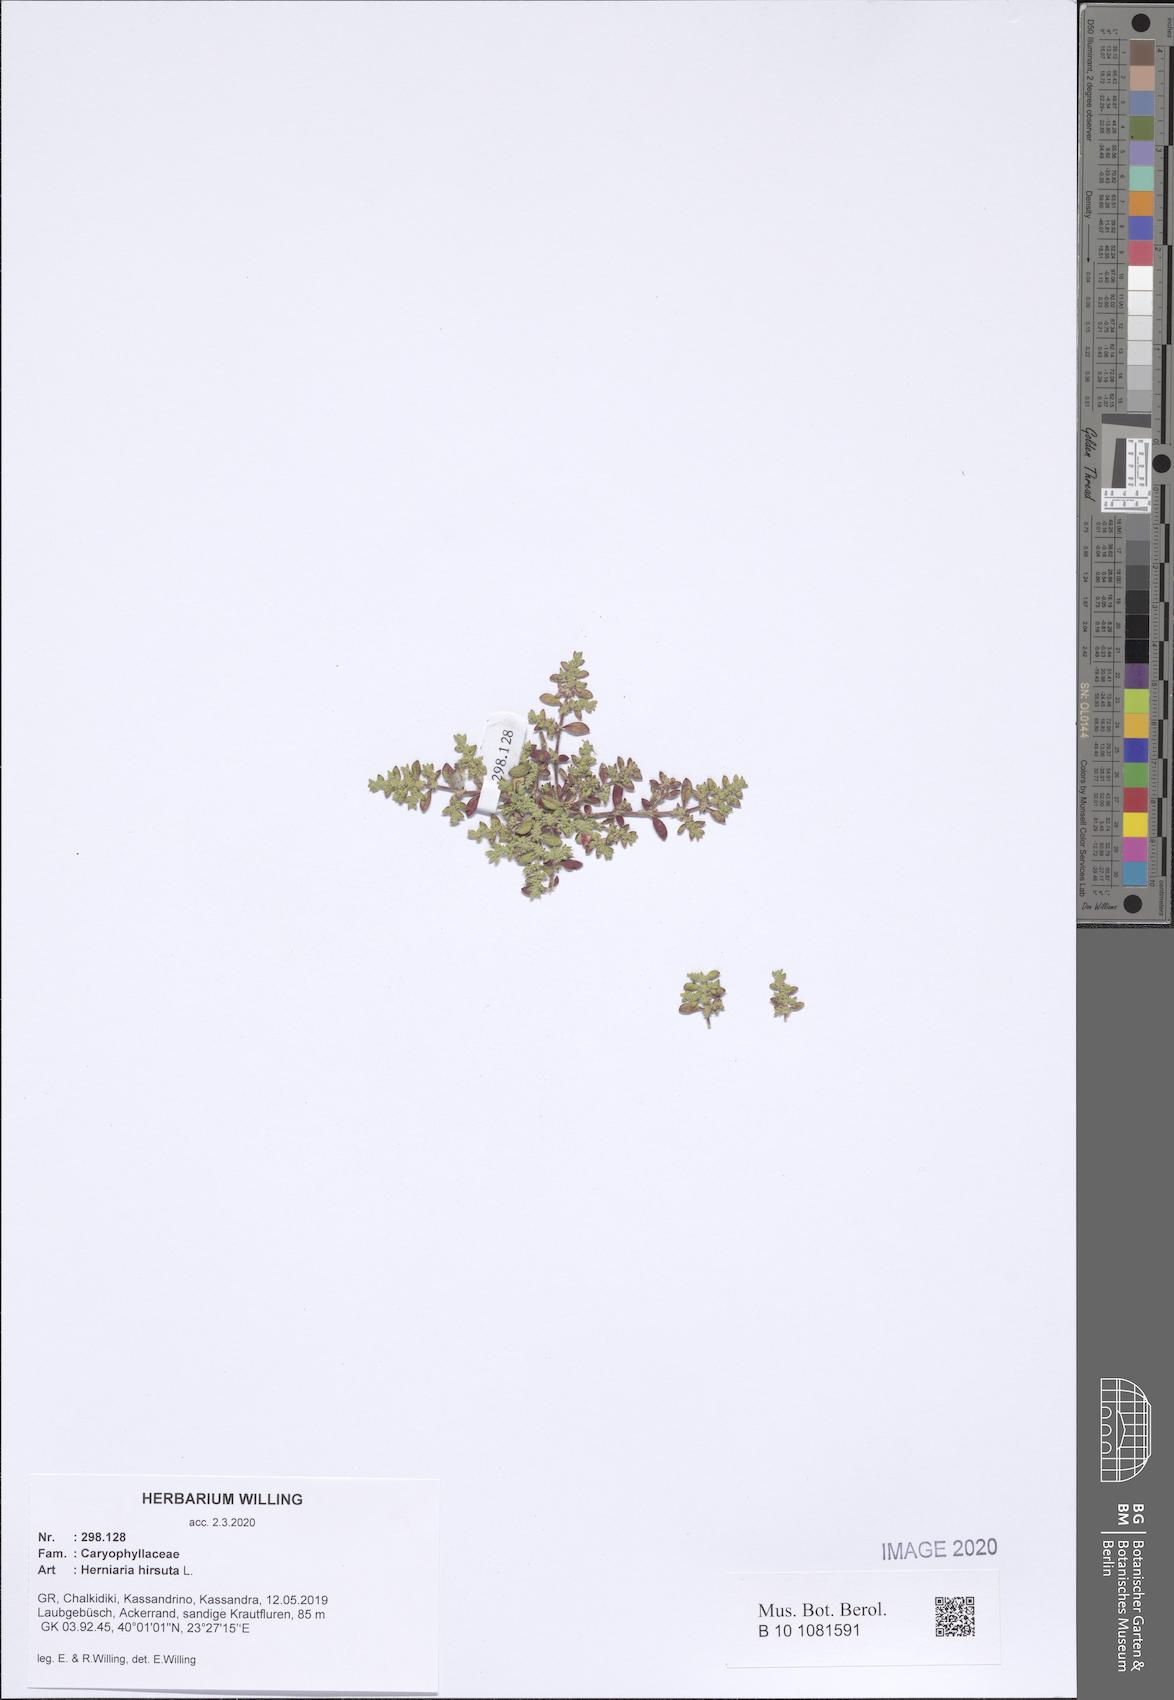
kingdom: Plantae
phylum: Tracheophyta
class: Magnoliopsida
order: Caryophyllales
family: Caryophyllaceae
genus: Herniaria
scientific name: Herniaria hirsuta
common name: Hairy rupturewort
